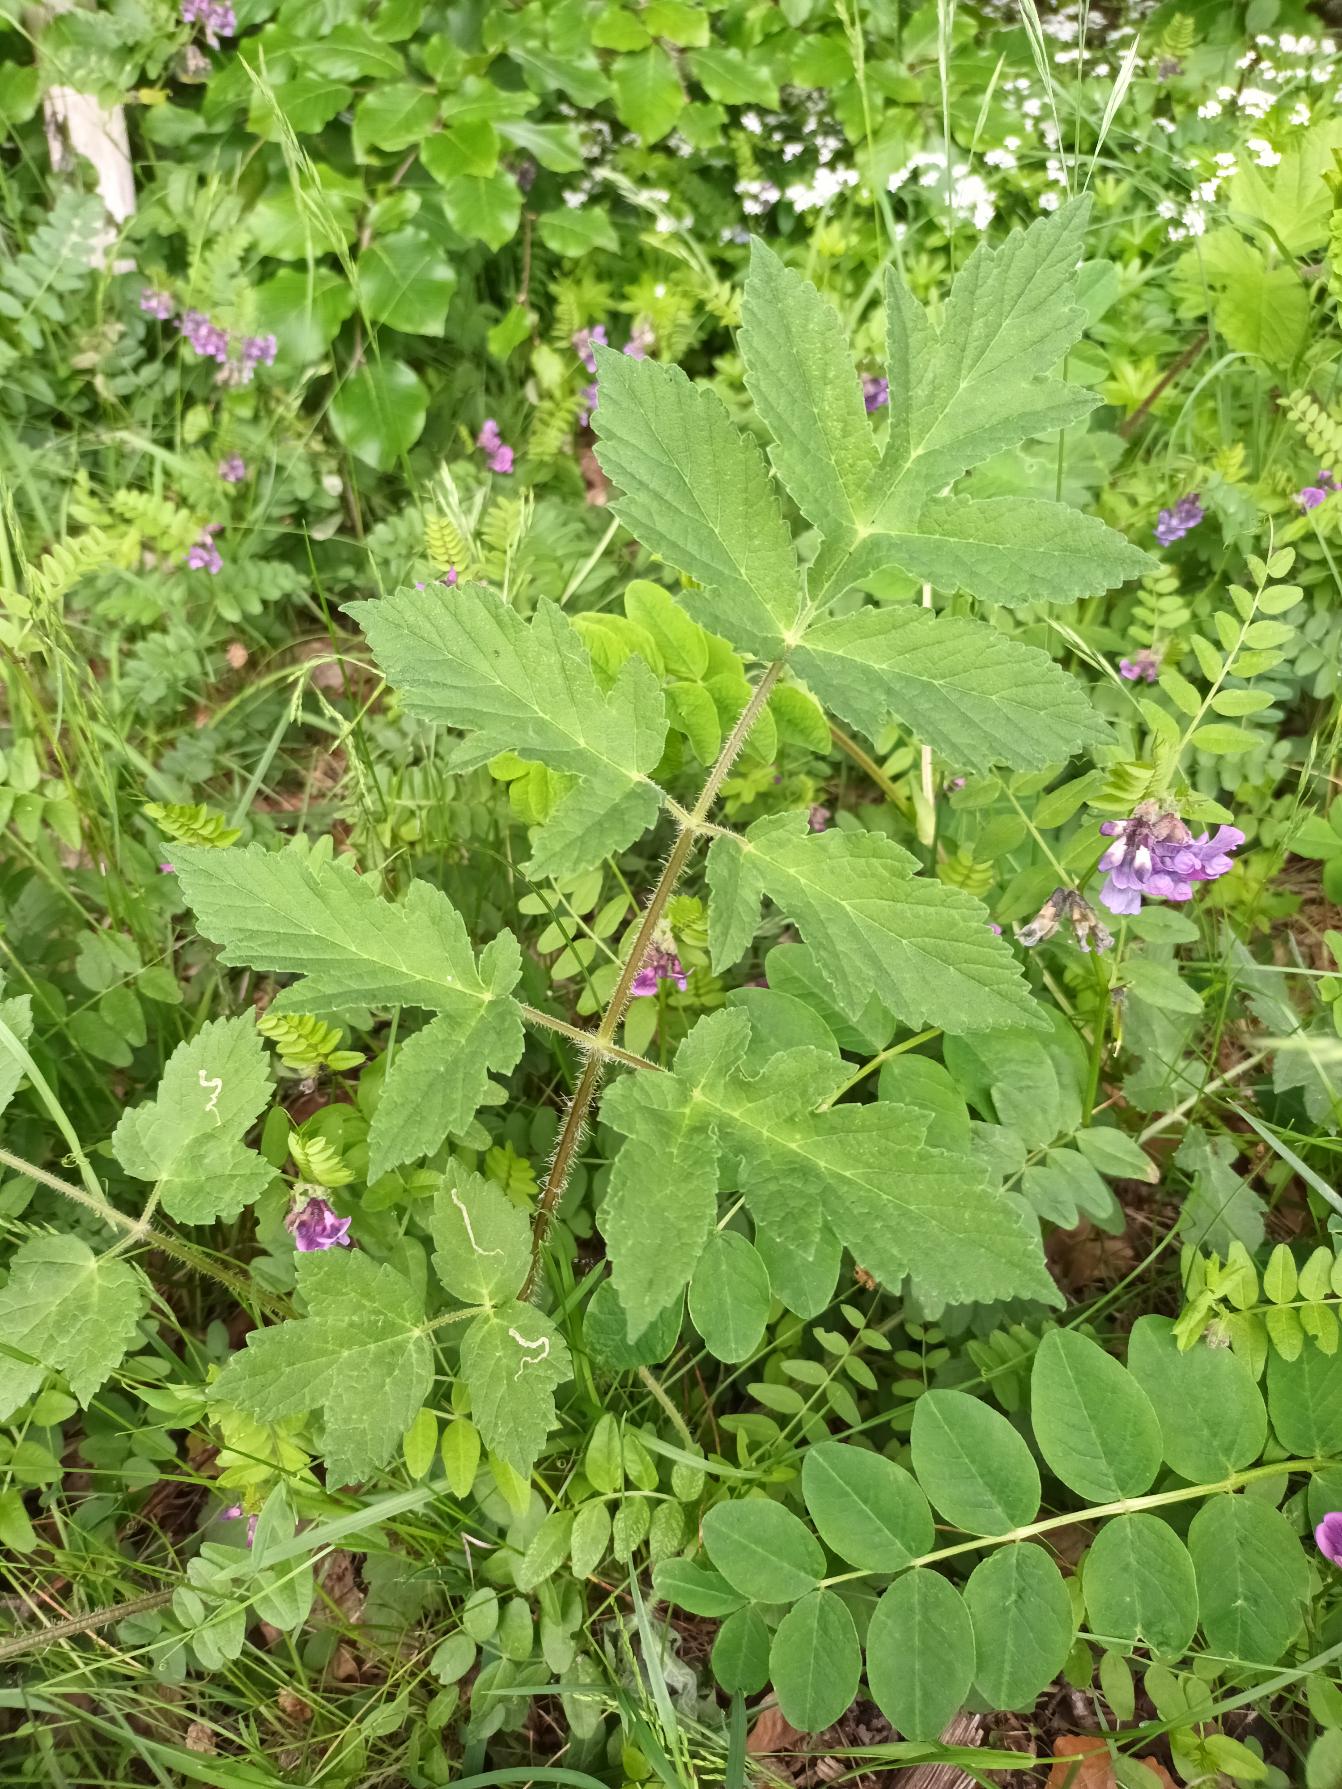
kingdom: Plantae
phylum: Tracheophyta
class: Magnoliopsida
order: Apiales
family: Apiaceae
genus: Heracleum
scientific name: Heracleum sphondylium
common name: Almindelig bjørneklo
